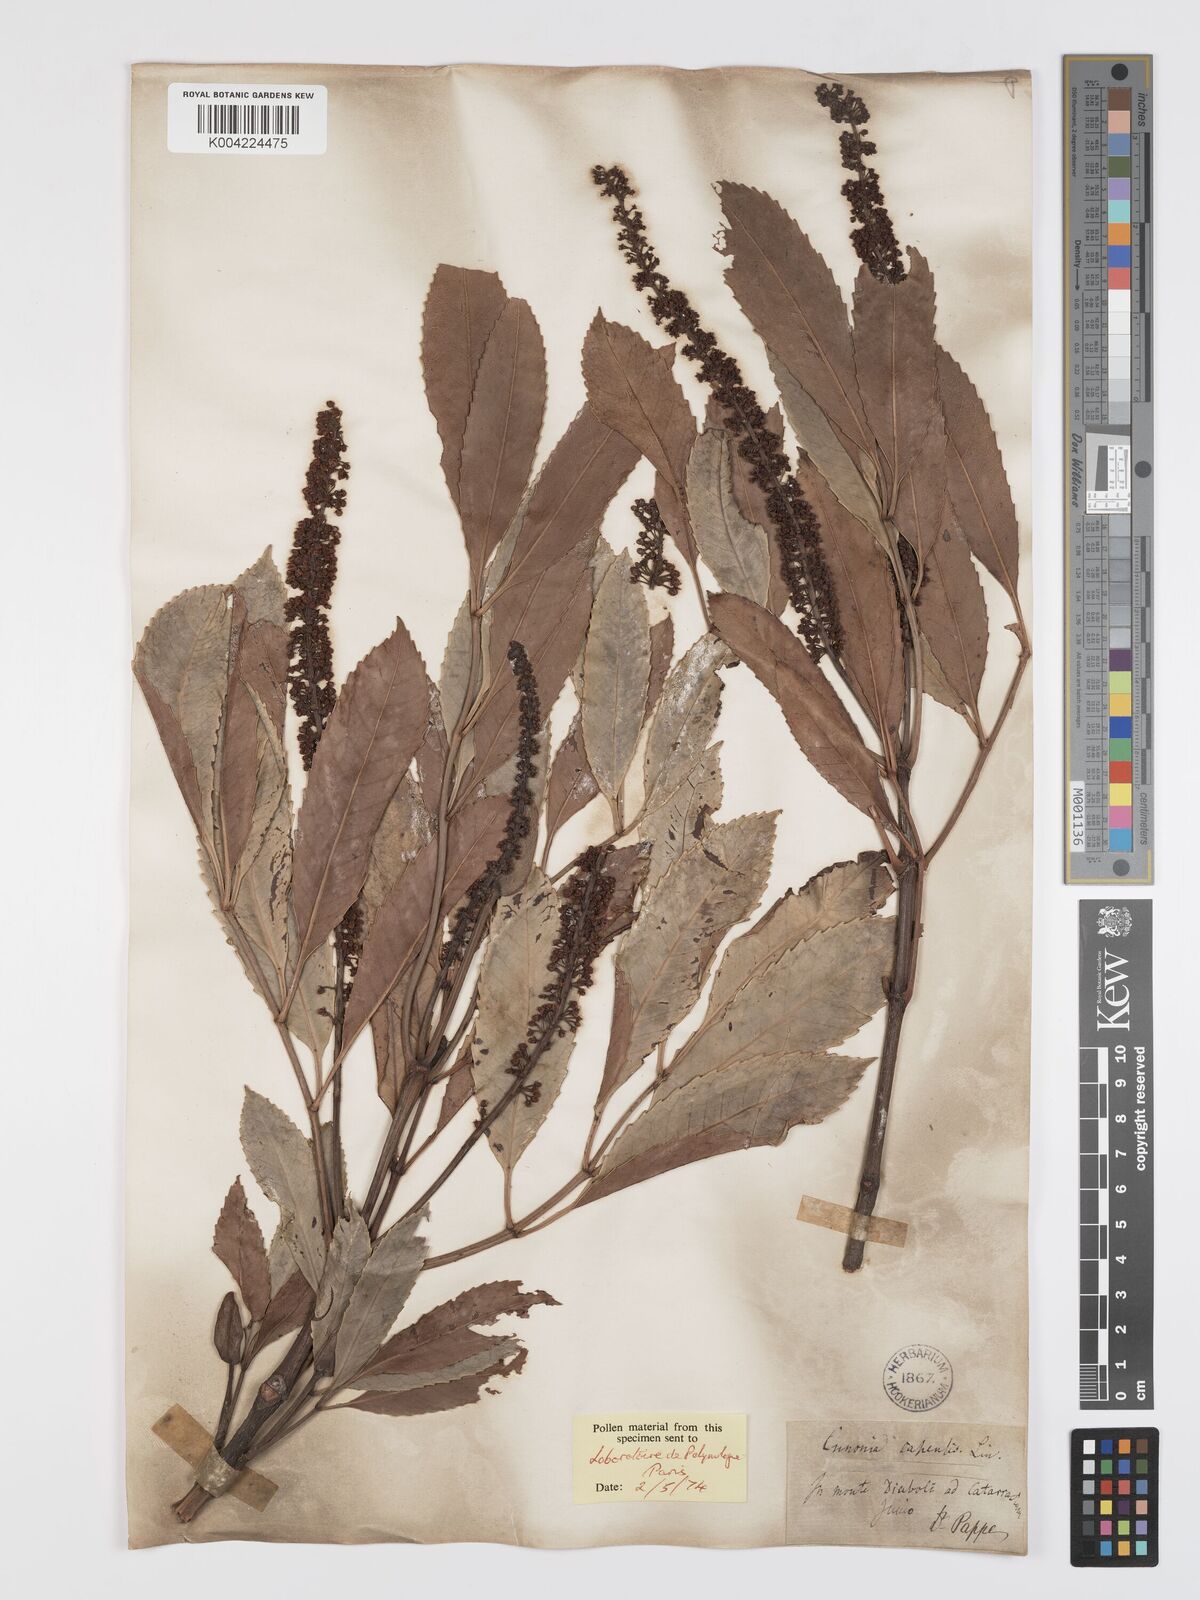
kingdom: Plantae
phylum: Tracheophyta
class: Magnoliopsida
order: Oxalidales
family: Cunoniaceae
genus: Cunonia
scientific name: Cunonia capensis
